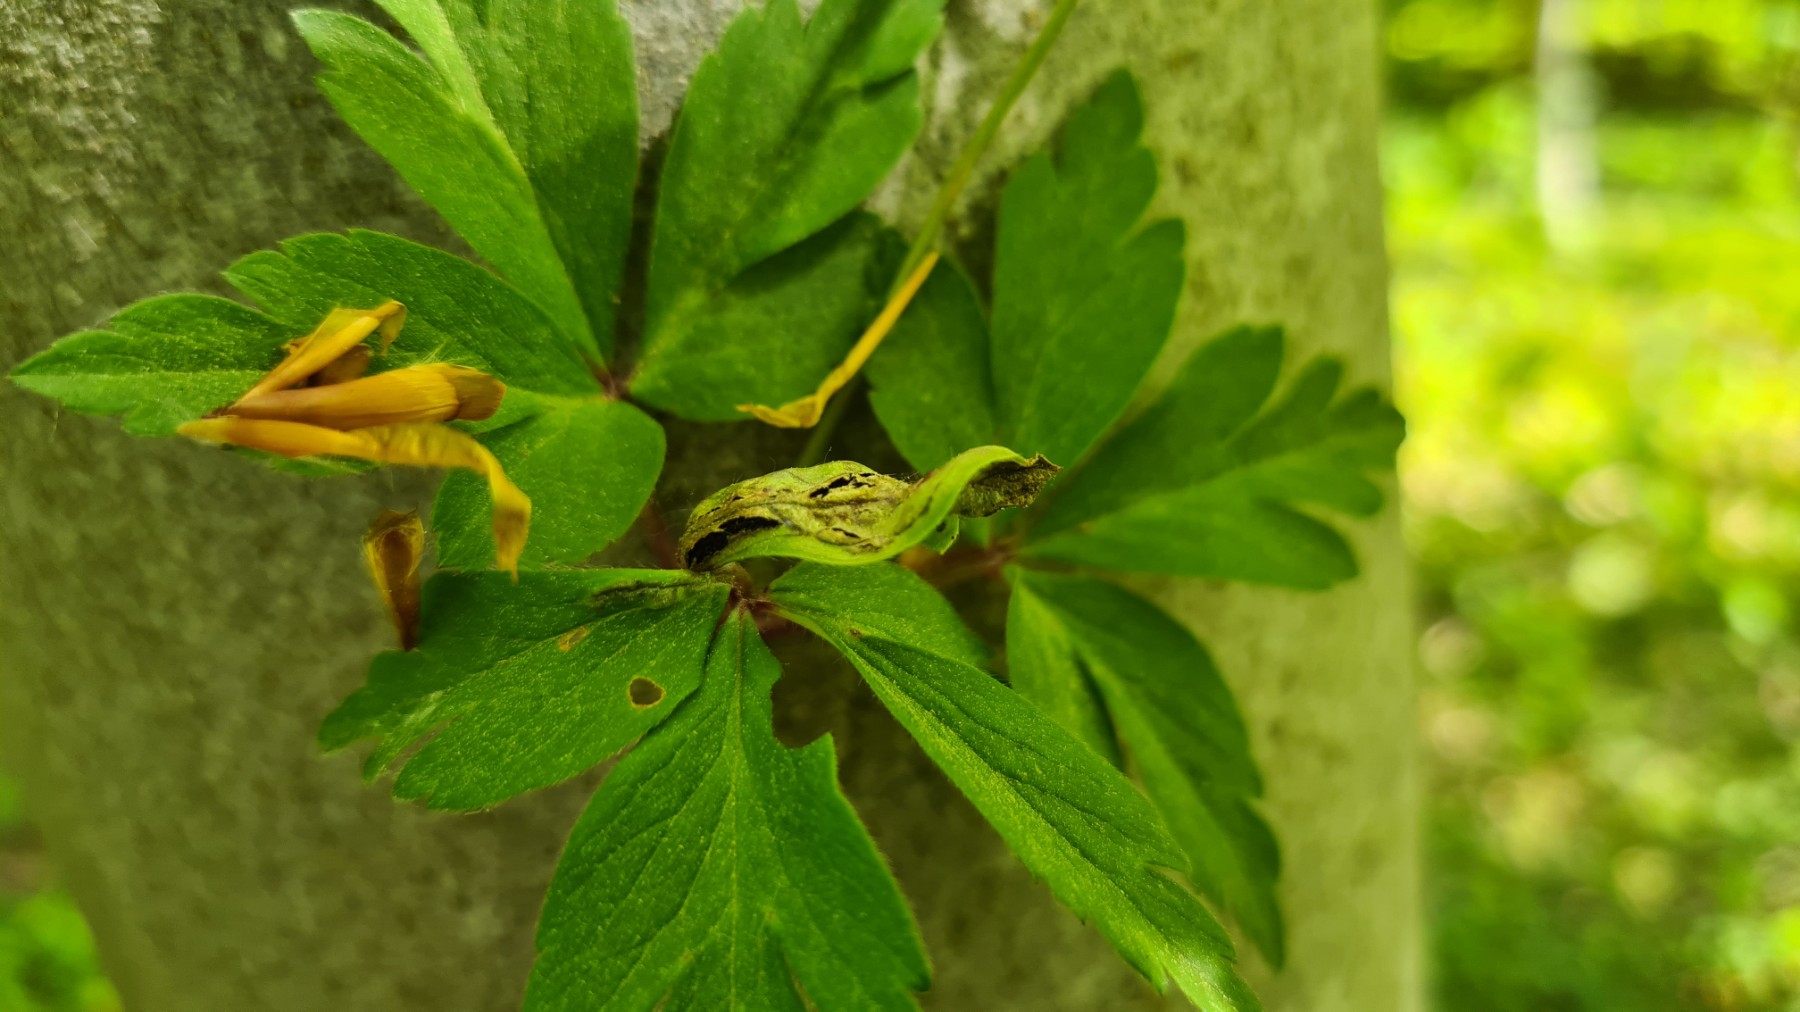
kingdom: Fungi
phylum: Basidiomycota
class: Ustilaginomycetes
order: Urocystidales
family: Urocystidaceae
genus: Urocystis
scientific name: Urocystis anemones
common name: anemone-brand
